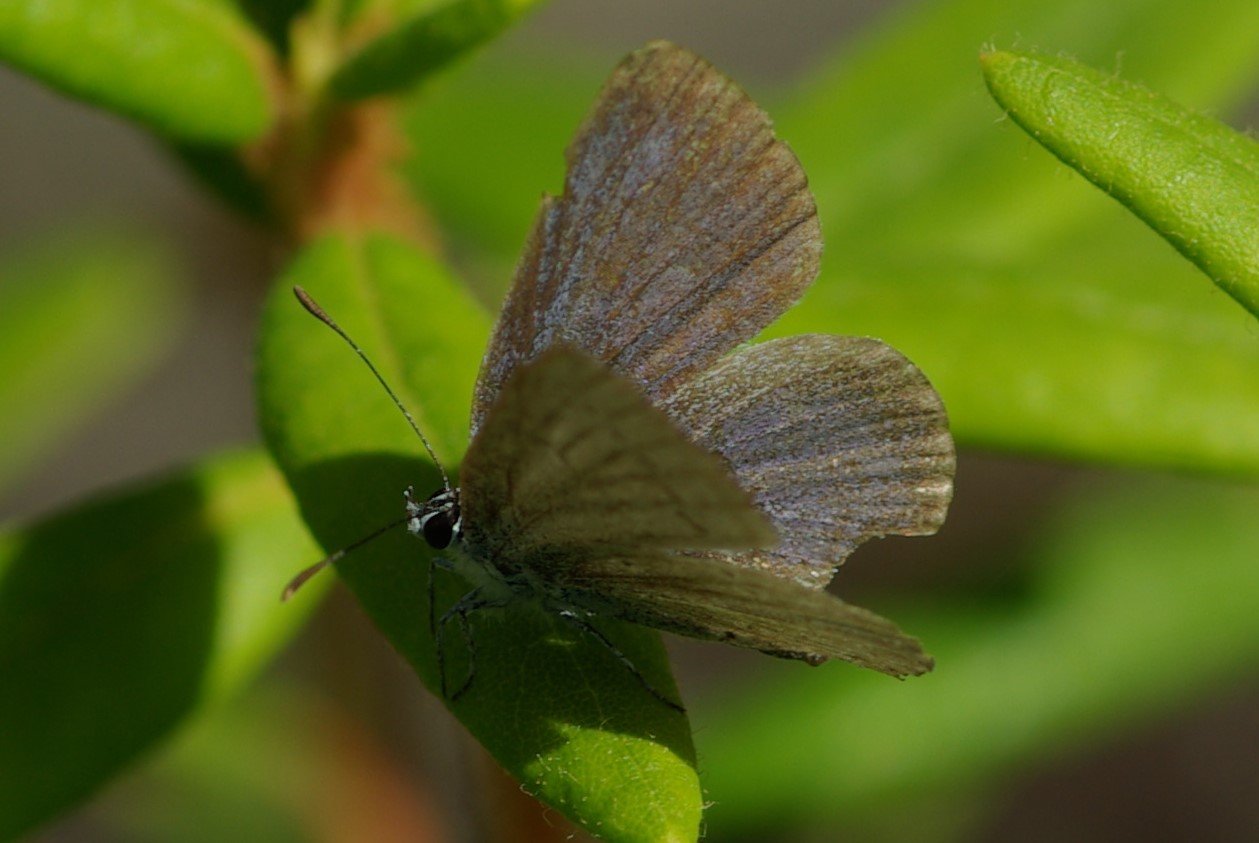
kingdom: Animalia
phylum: Arthropoda
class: Insecta
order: Lepidoptera
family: Lycaenidae
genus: Elkalyce
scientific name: Elkalyce amyntula
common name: Western Tailed-Blue
